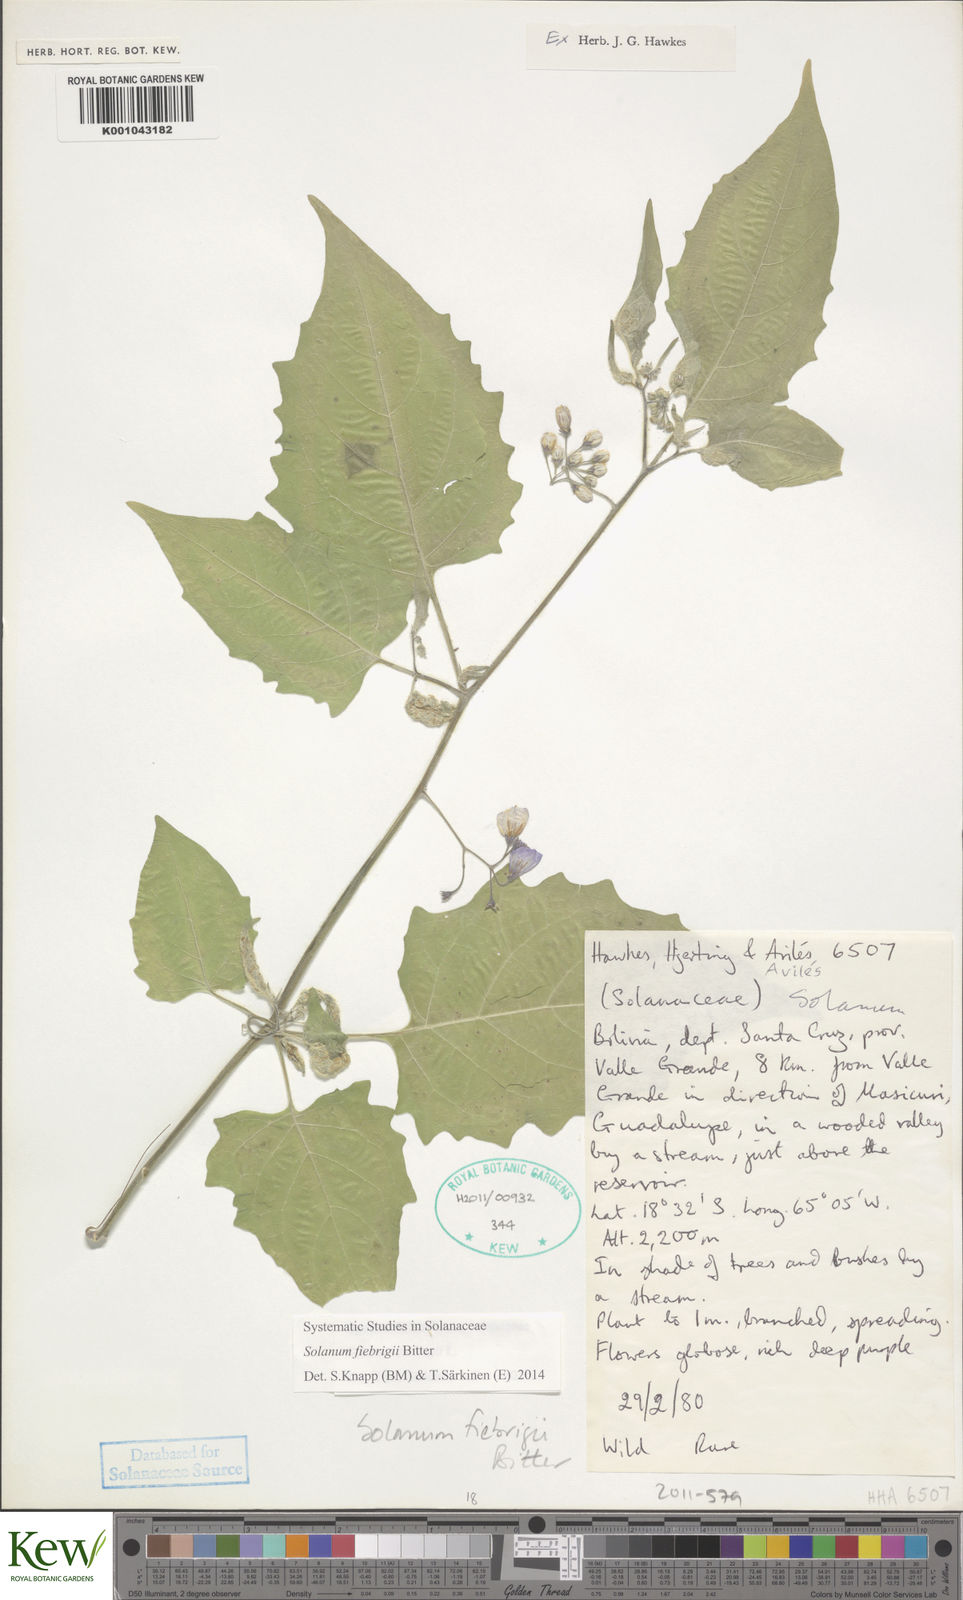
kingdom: Plantae
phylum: Tracheophyta
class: Magnoliopsida
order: Solanales
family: Solanaceae
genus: Solanum
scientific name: Solanum fiebrigii
